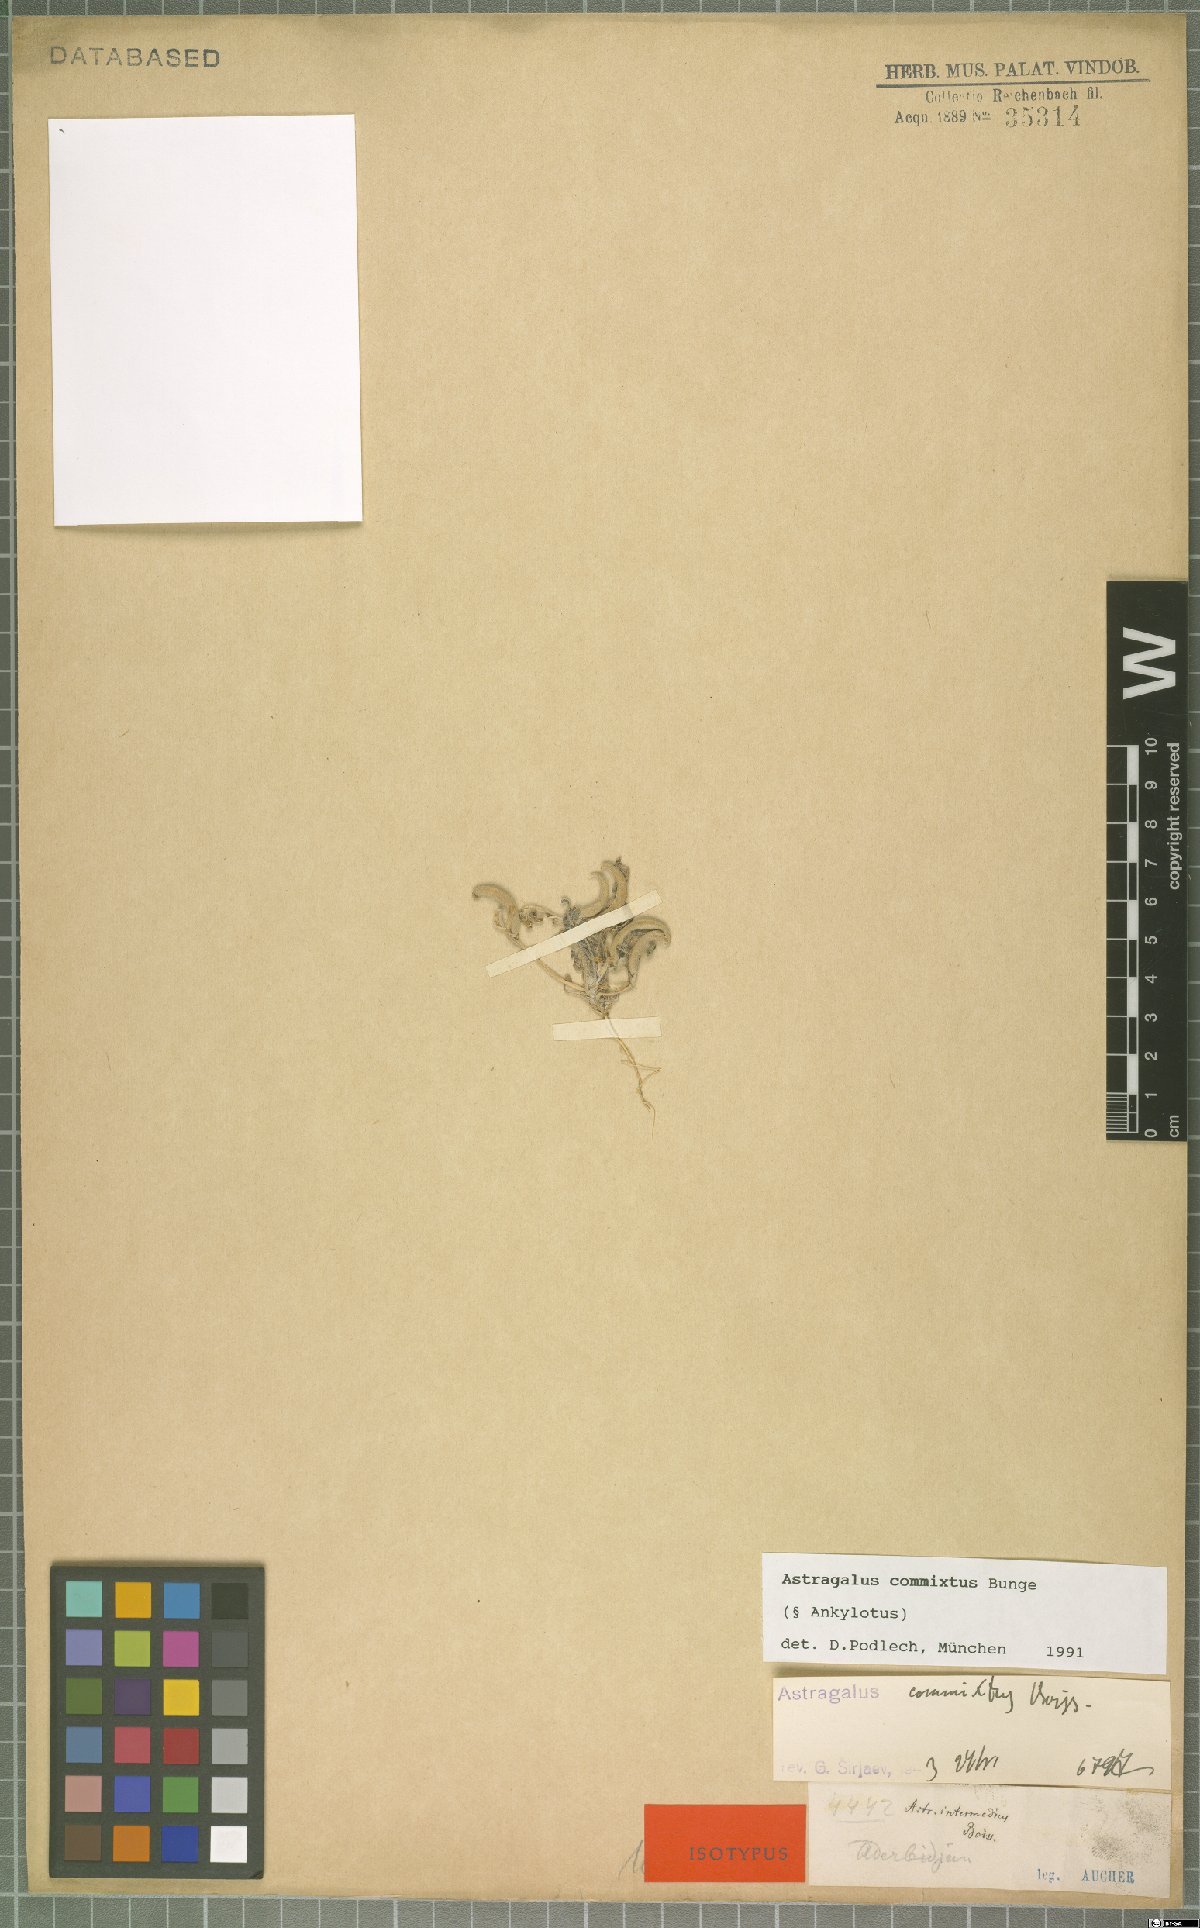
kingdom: Plantae
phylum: Tracheophyta
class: Magnoliopsida
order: Fabales
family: Fabaceae
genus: Astragalus
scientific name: Astragalus commixtus
